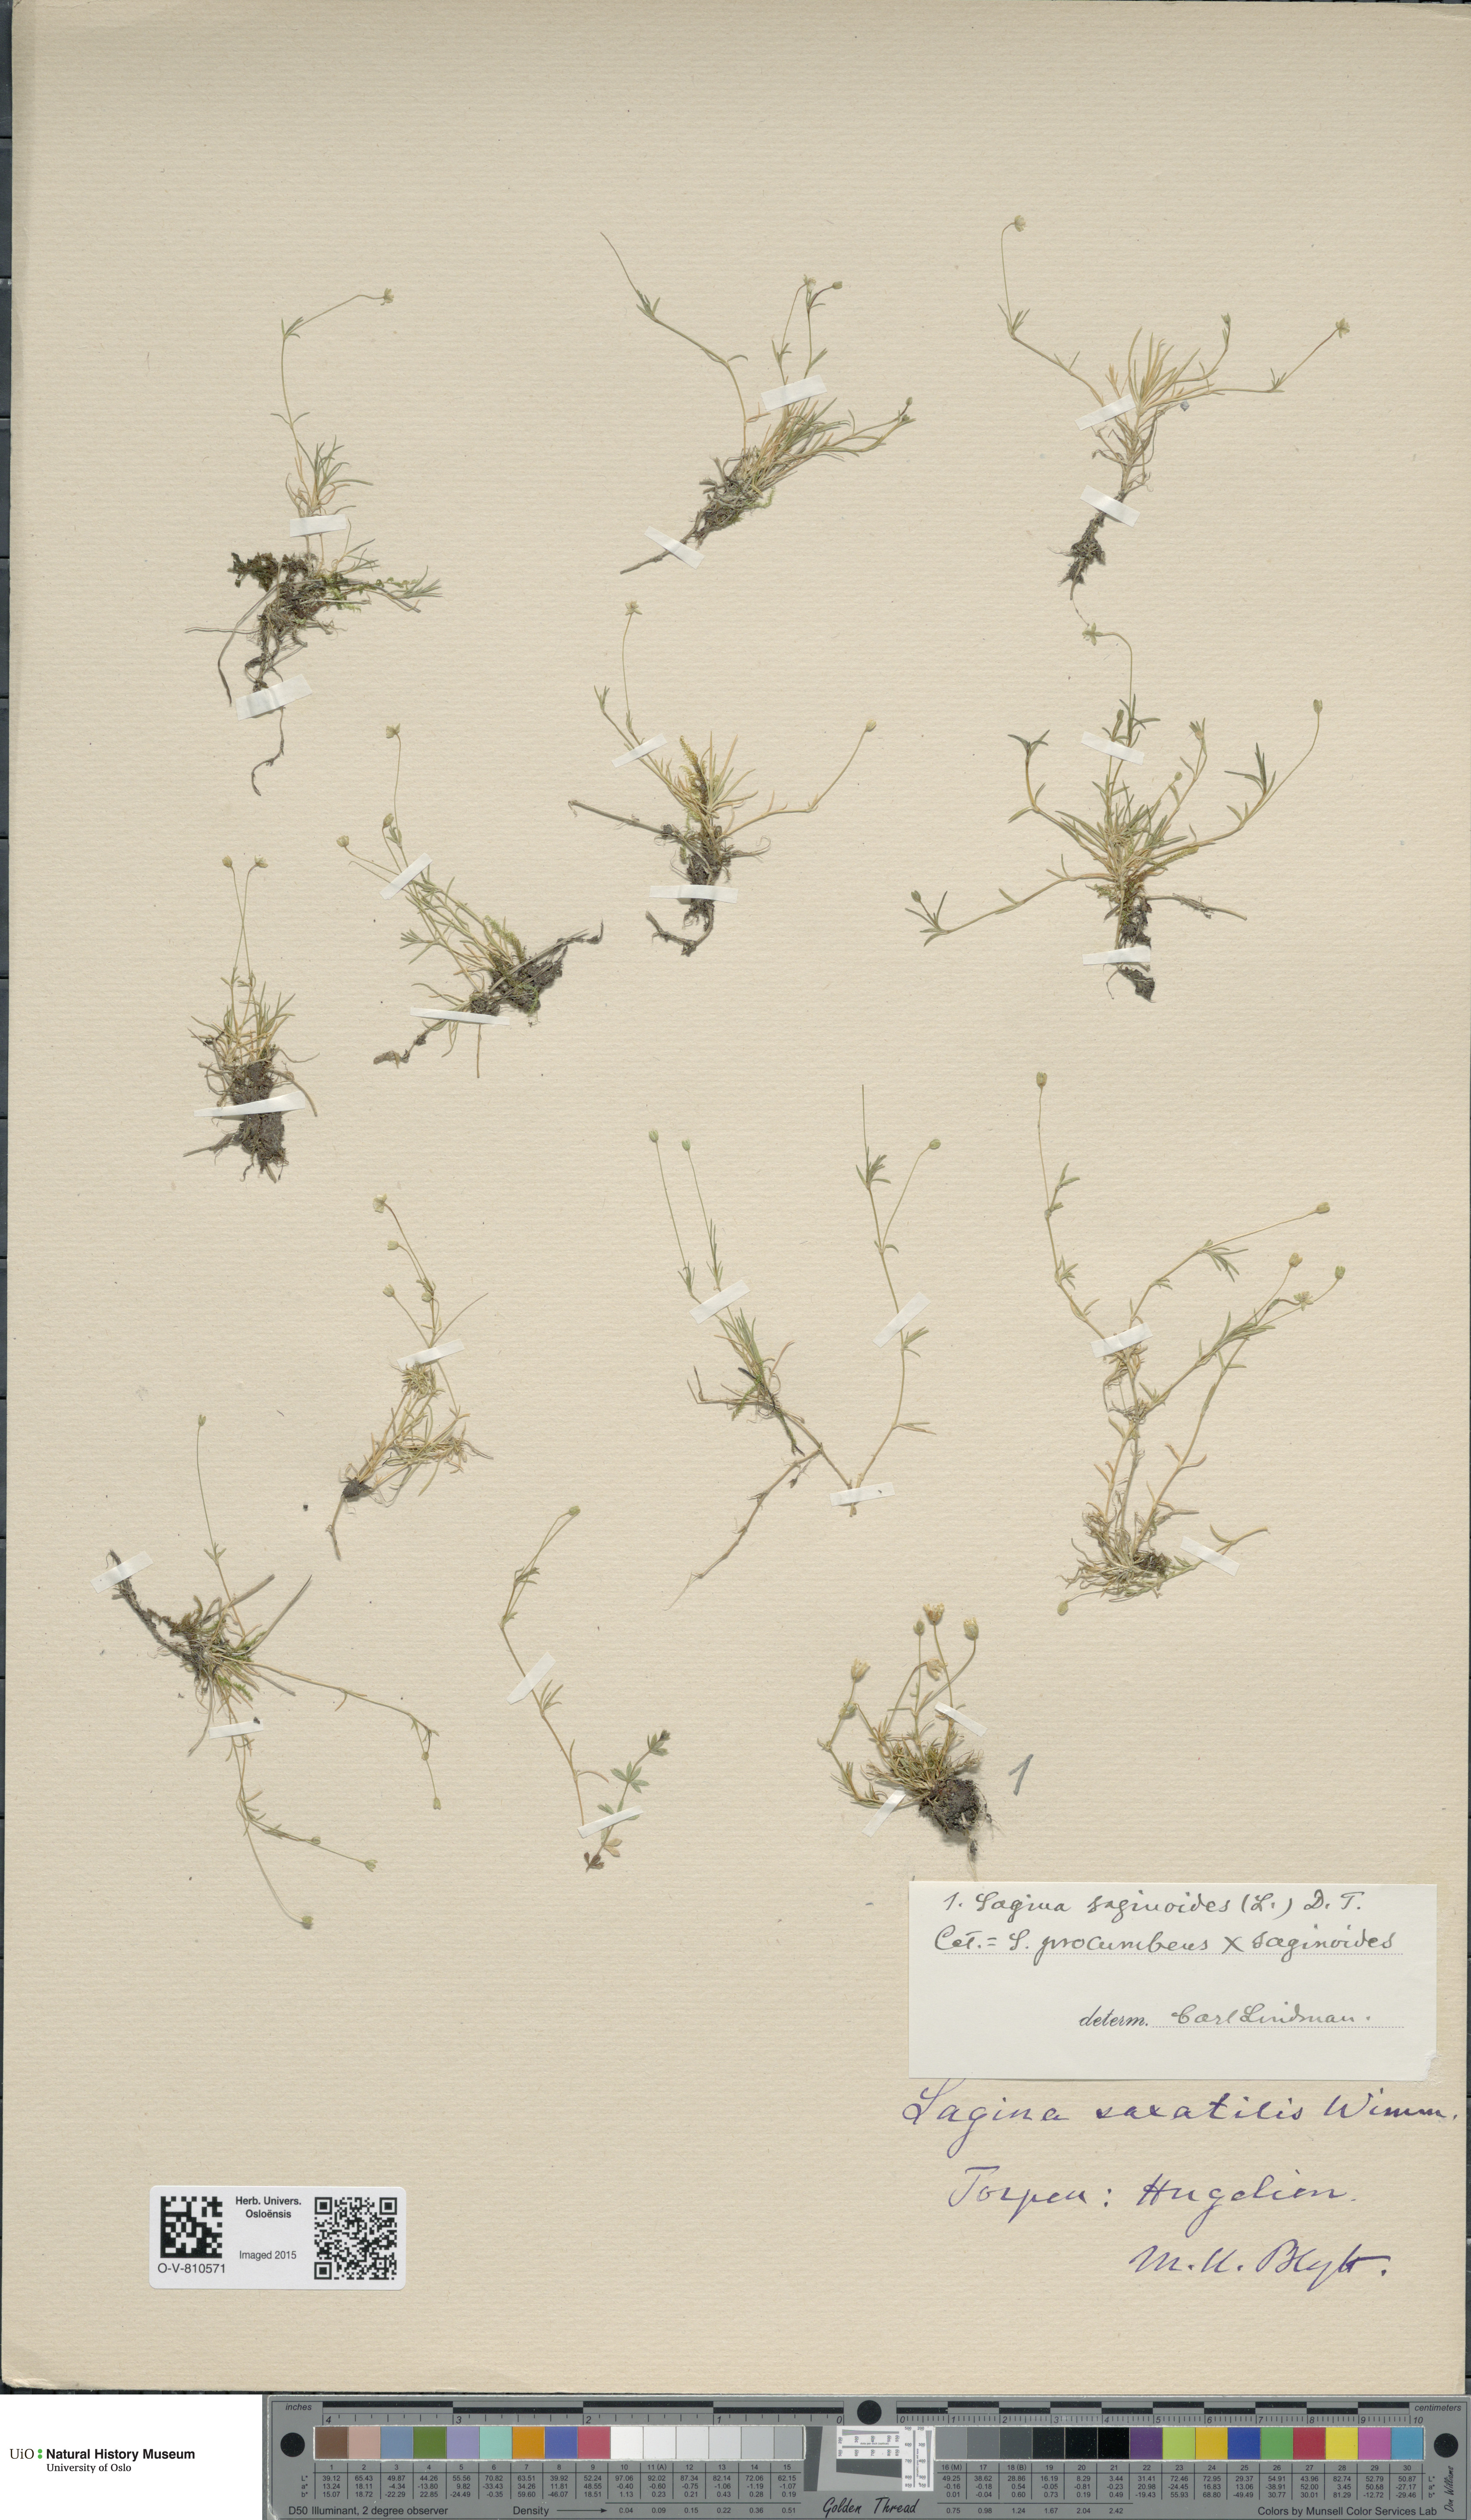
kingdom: Plantae
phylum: Tracheophyta
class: Magnoliopsida
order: Caryophyllales
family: Caryophyllaceae
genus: Sagina
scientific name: Sagina
